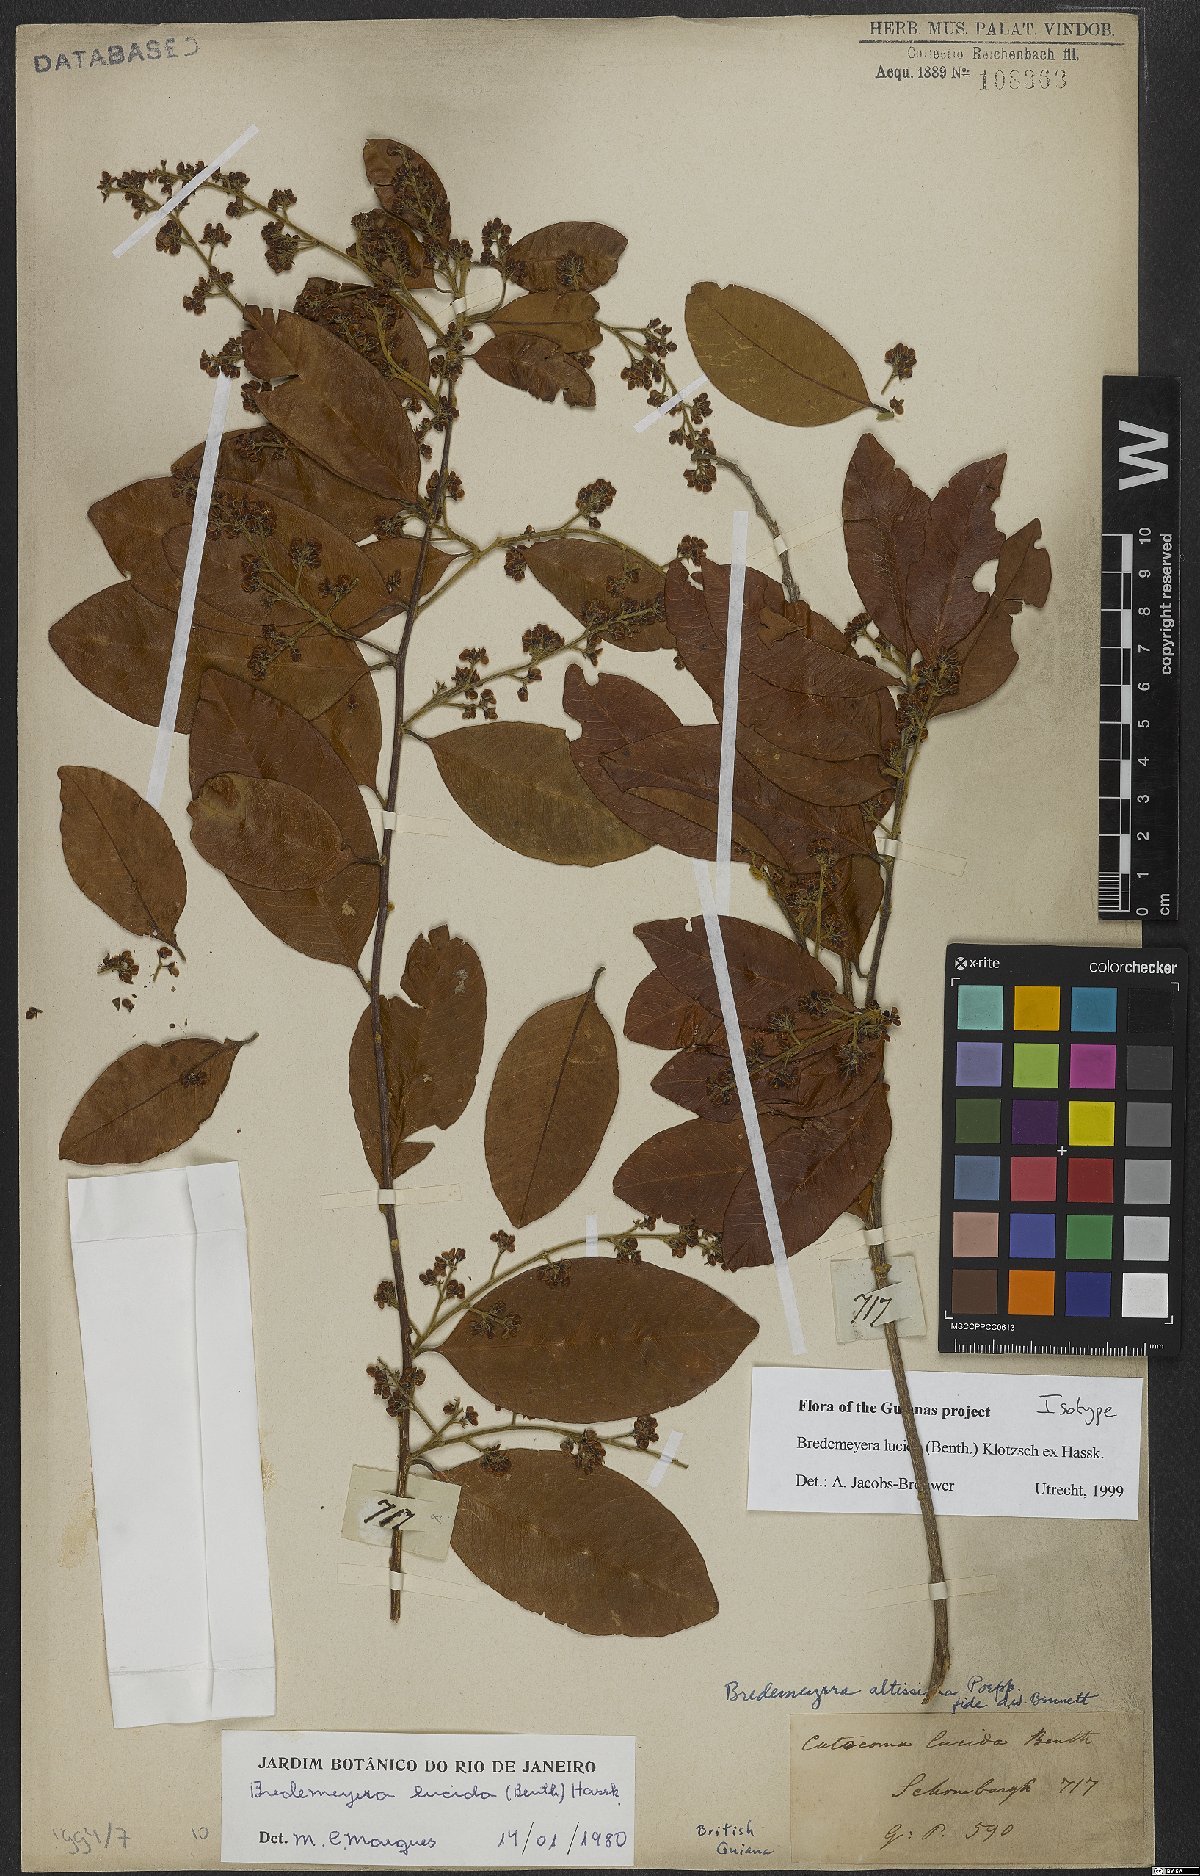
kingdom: Plantae
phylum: Tracheophyta
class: Magnoliopsida
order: Fabales
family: Polygalaceae
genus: Bredemeyera
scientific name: Bredemeyera lucida
